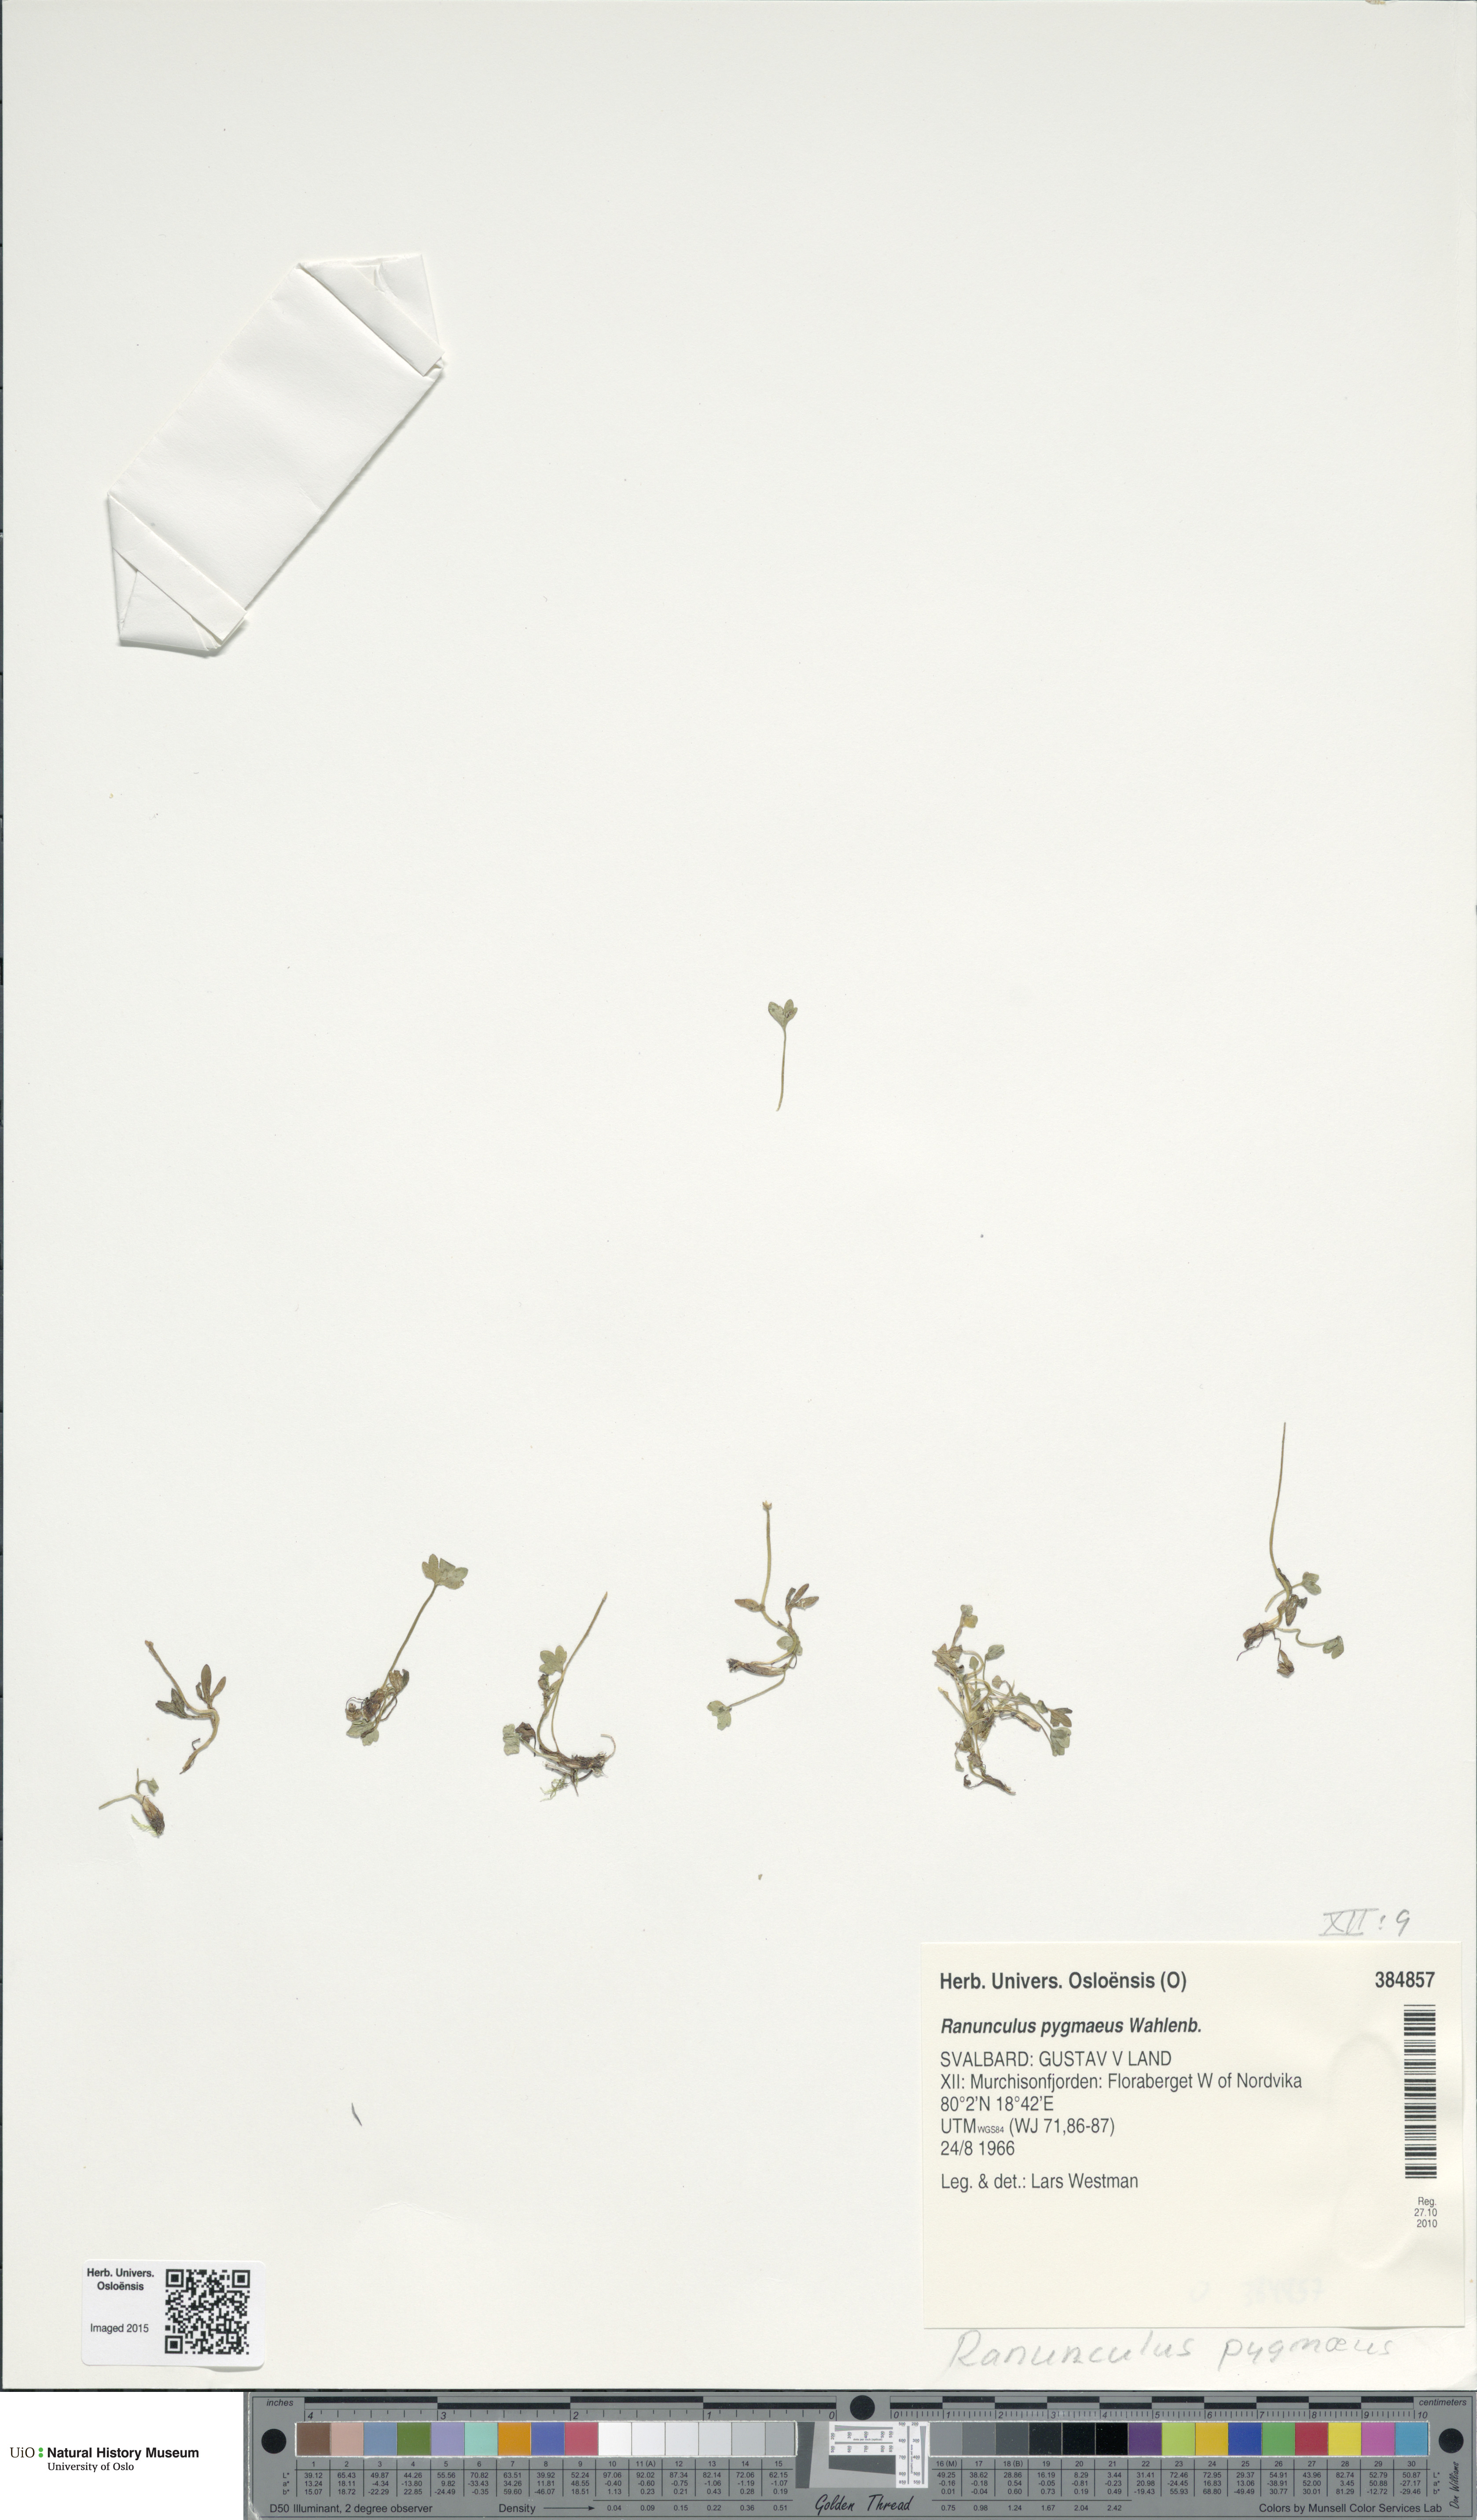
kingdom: Plantae
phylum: Tracheophyta
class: Magnoliopsida
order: Ranunculales
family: Ranunculaceae
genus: Ranunculus
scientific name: Ranunculus pygmaeus
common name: Dwarf buttercup
